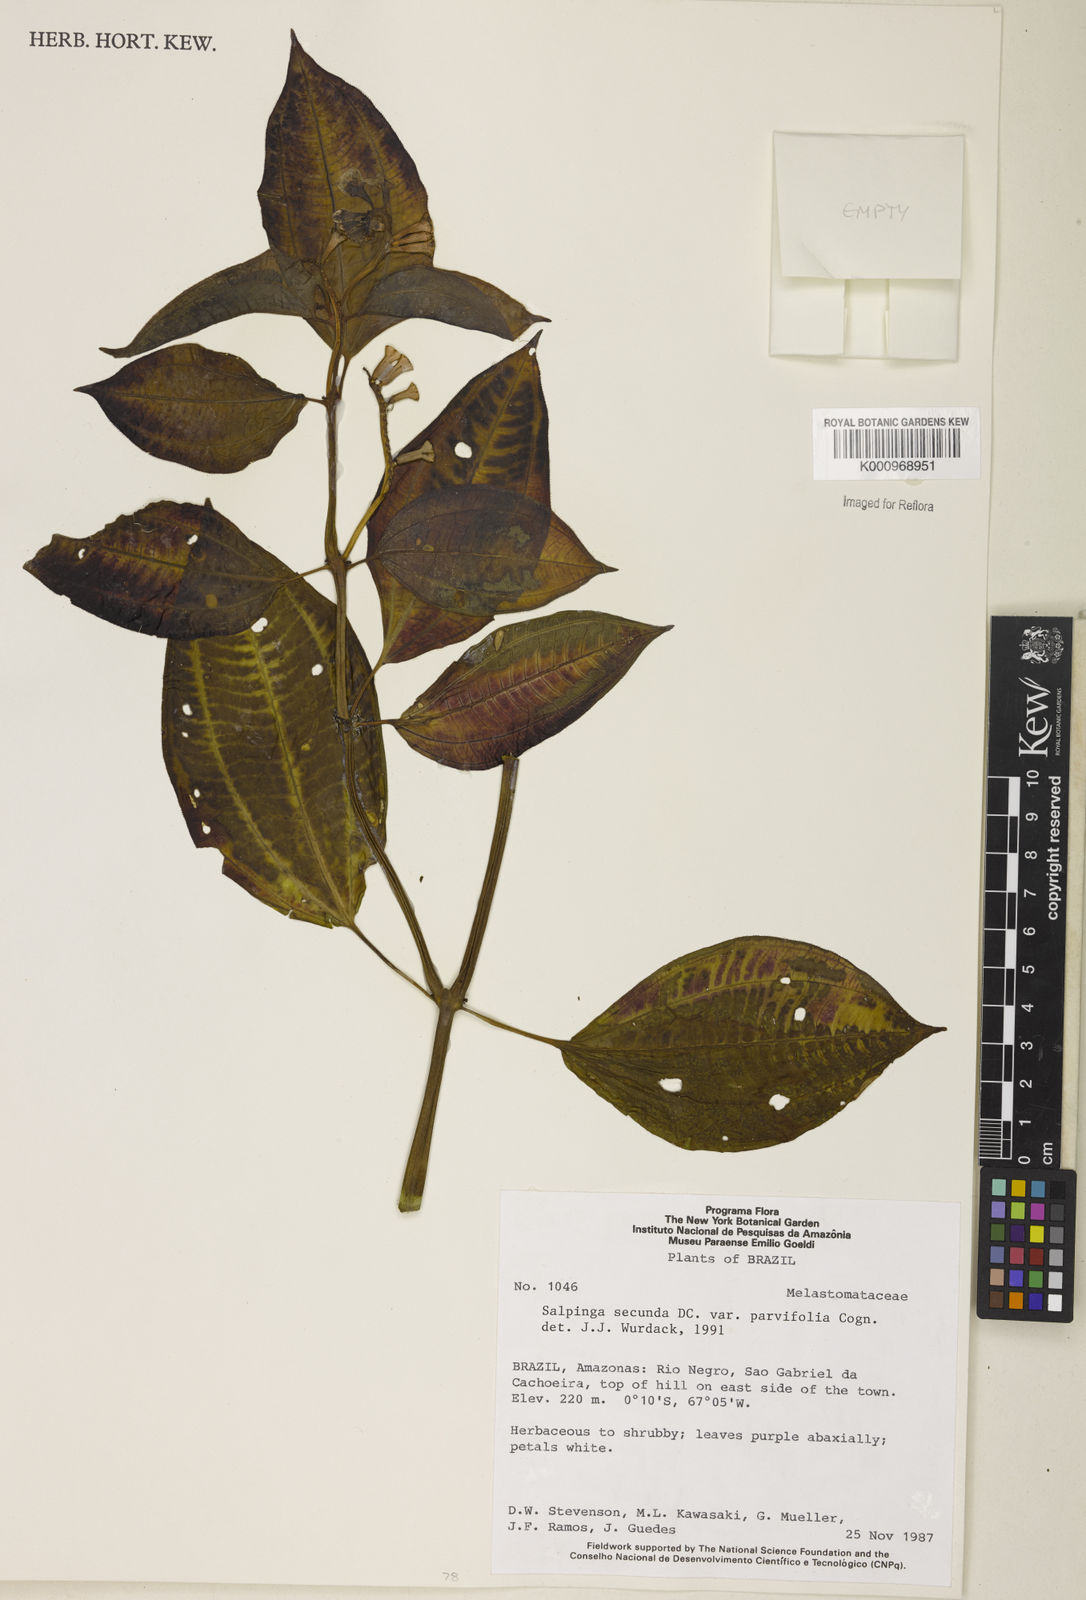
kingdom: Plantae
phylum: Tracheophyta
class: Magnoliopsida
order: Myrtales
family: Melastomataceae
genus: Salpinga
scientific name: Salpinga secunda
